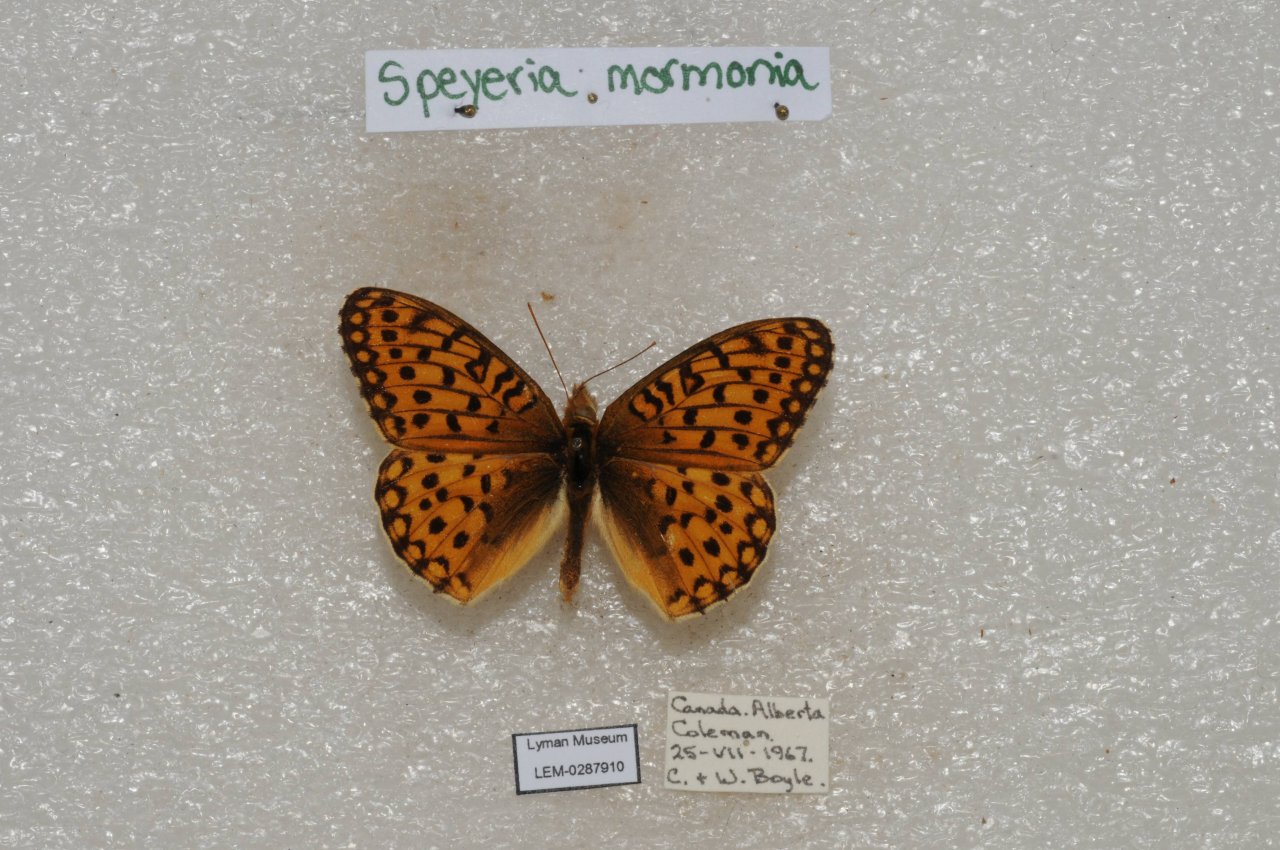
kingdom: Animalia
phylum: Arthropoda
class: Insecta
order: Lepidoptera
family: Nymphalidae
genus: Speyeria
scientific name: Speyeria mormonia
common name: Mormon Fritillary
